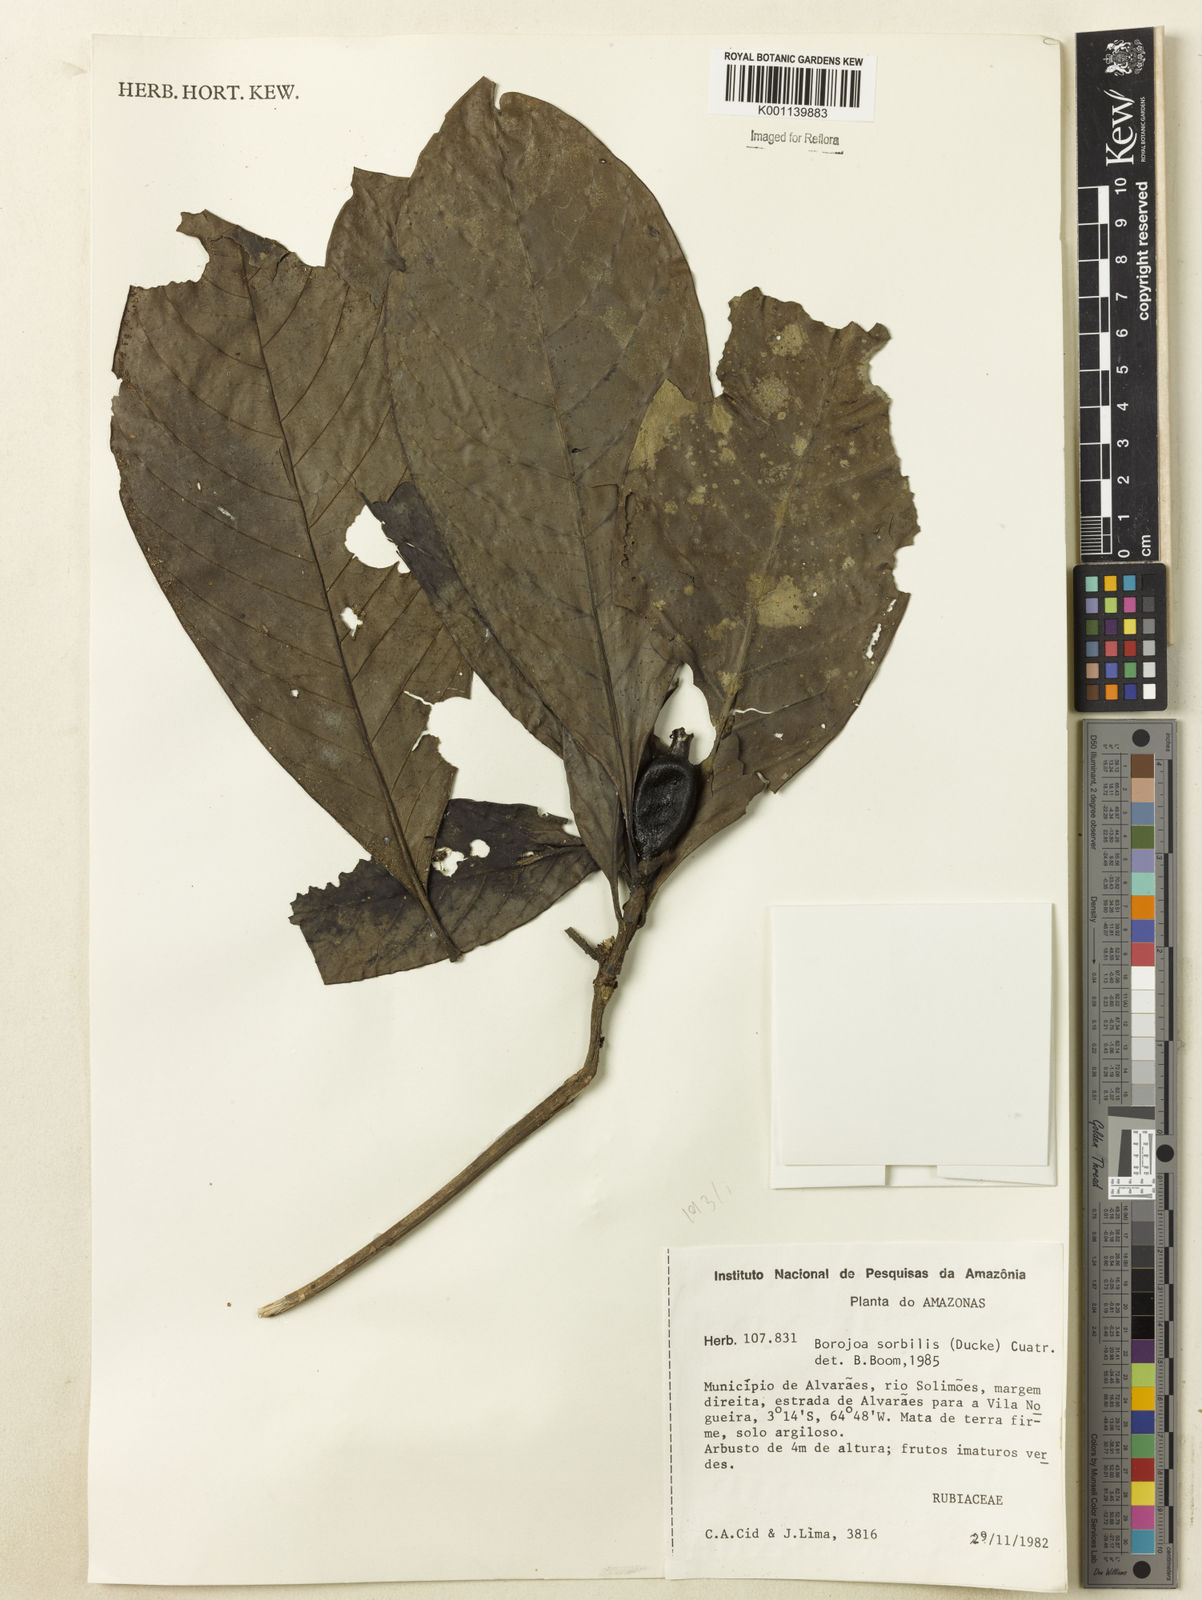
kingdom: Plantae
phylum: Tracheophyta
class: Magnoliopsida
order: Gentianales
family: Rubiaceae
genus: Alibertia
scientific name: Alibertia sorbilis
